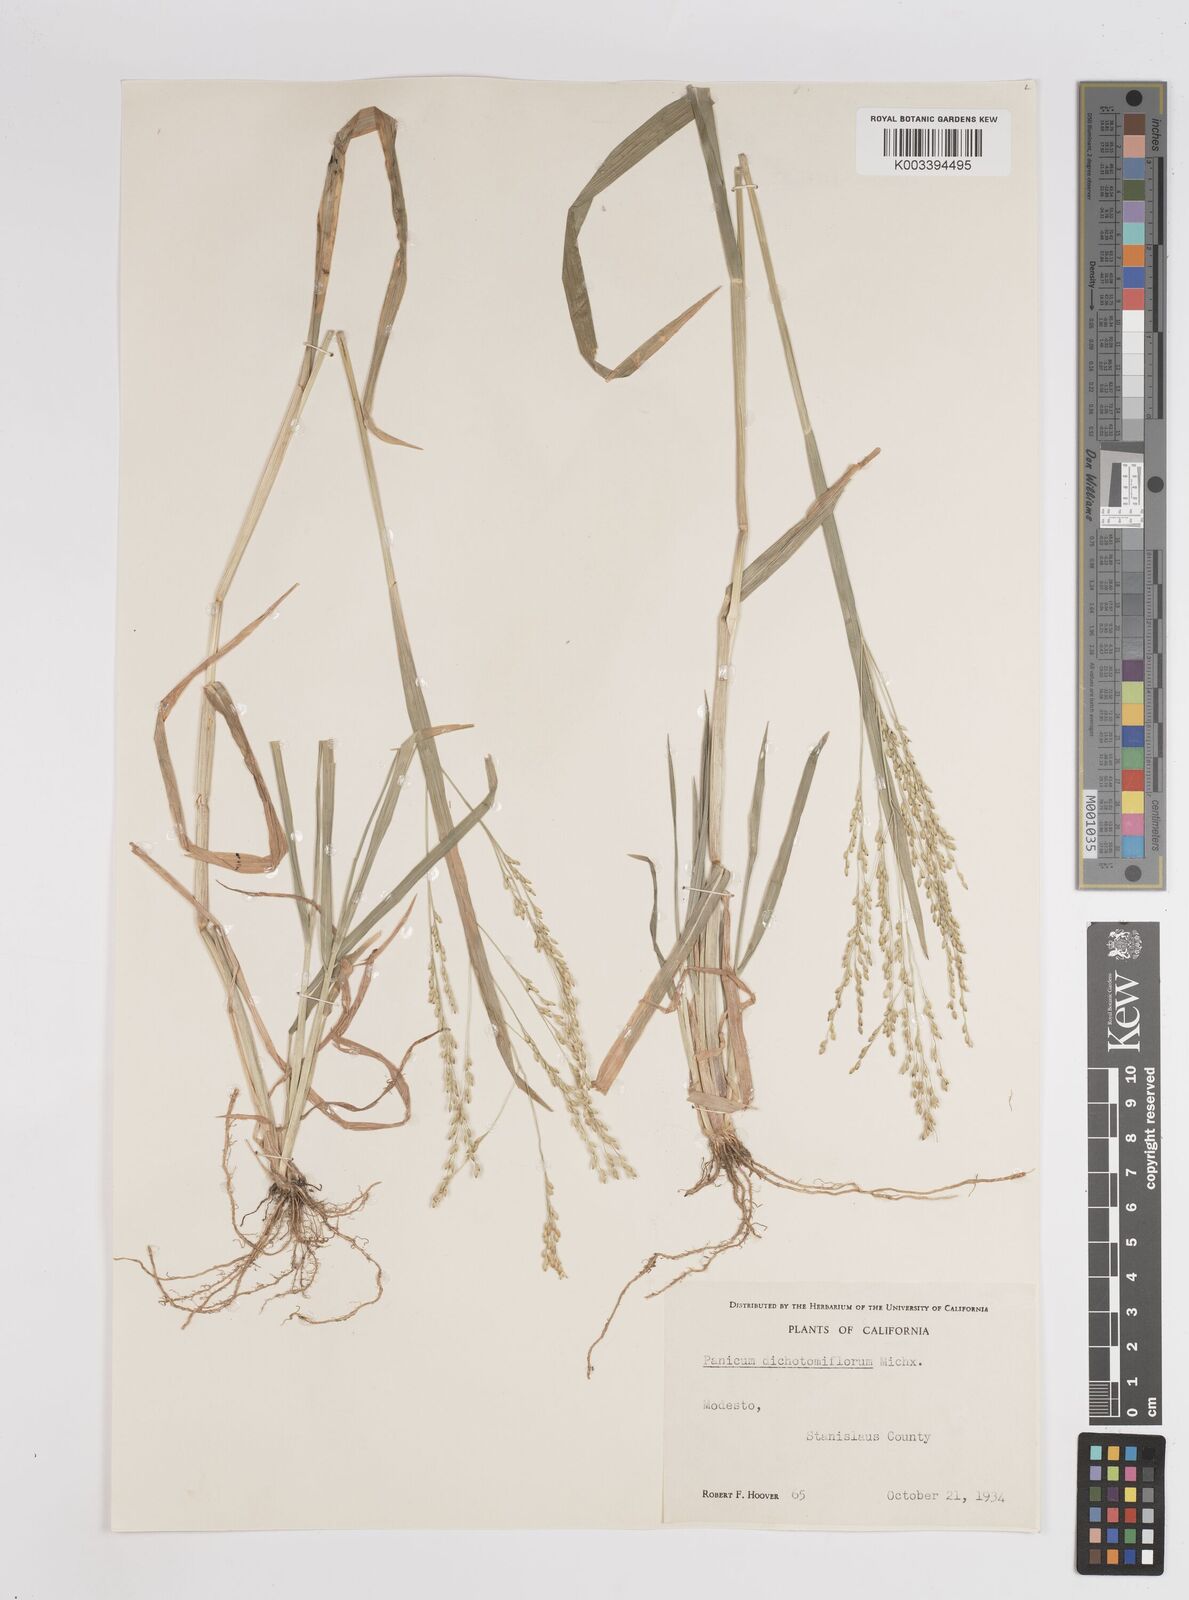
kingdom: Plantae
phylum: Tracheophyta
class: Liliopsida
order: Poales
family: Poaceae
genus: Panicum
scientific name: Panicum dichotomiflorum
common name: Autumn millet
